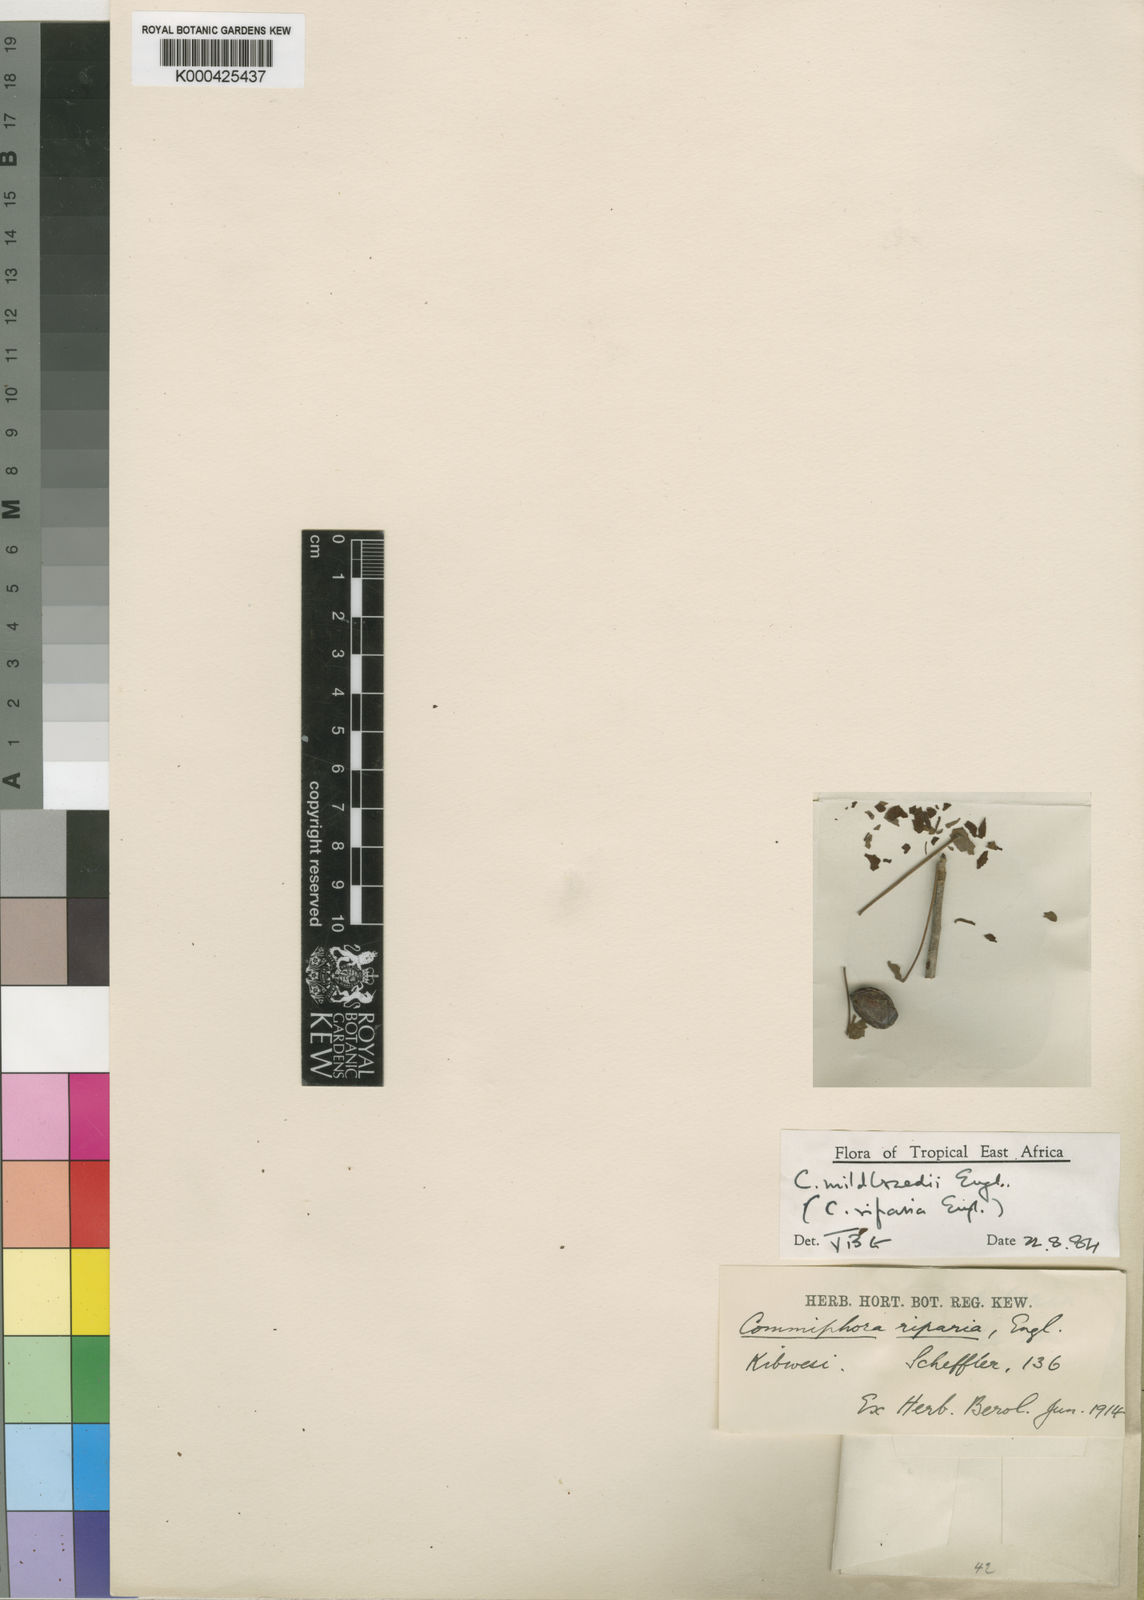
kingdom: Plantae
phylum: Tracheophyta
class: Magnoliopsida
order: Sapindales
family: Burseraceae
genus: Commiphora
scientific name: Commiphora mildbraedii
